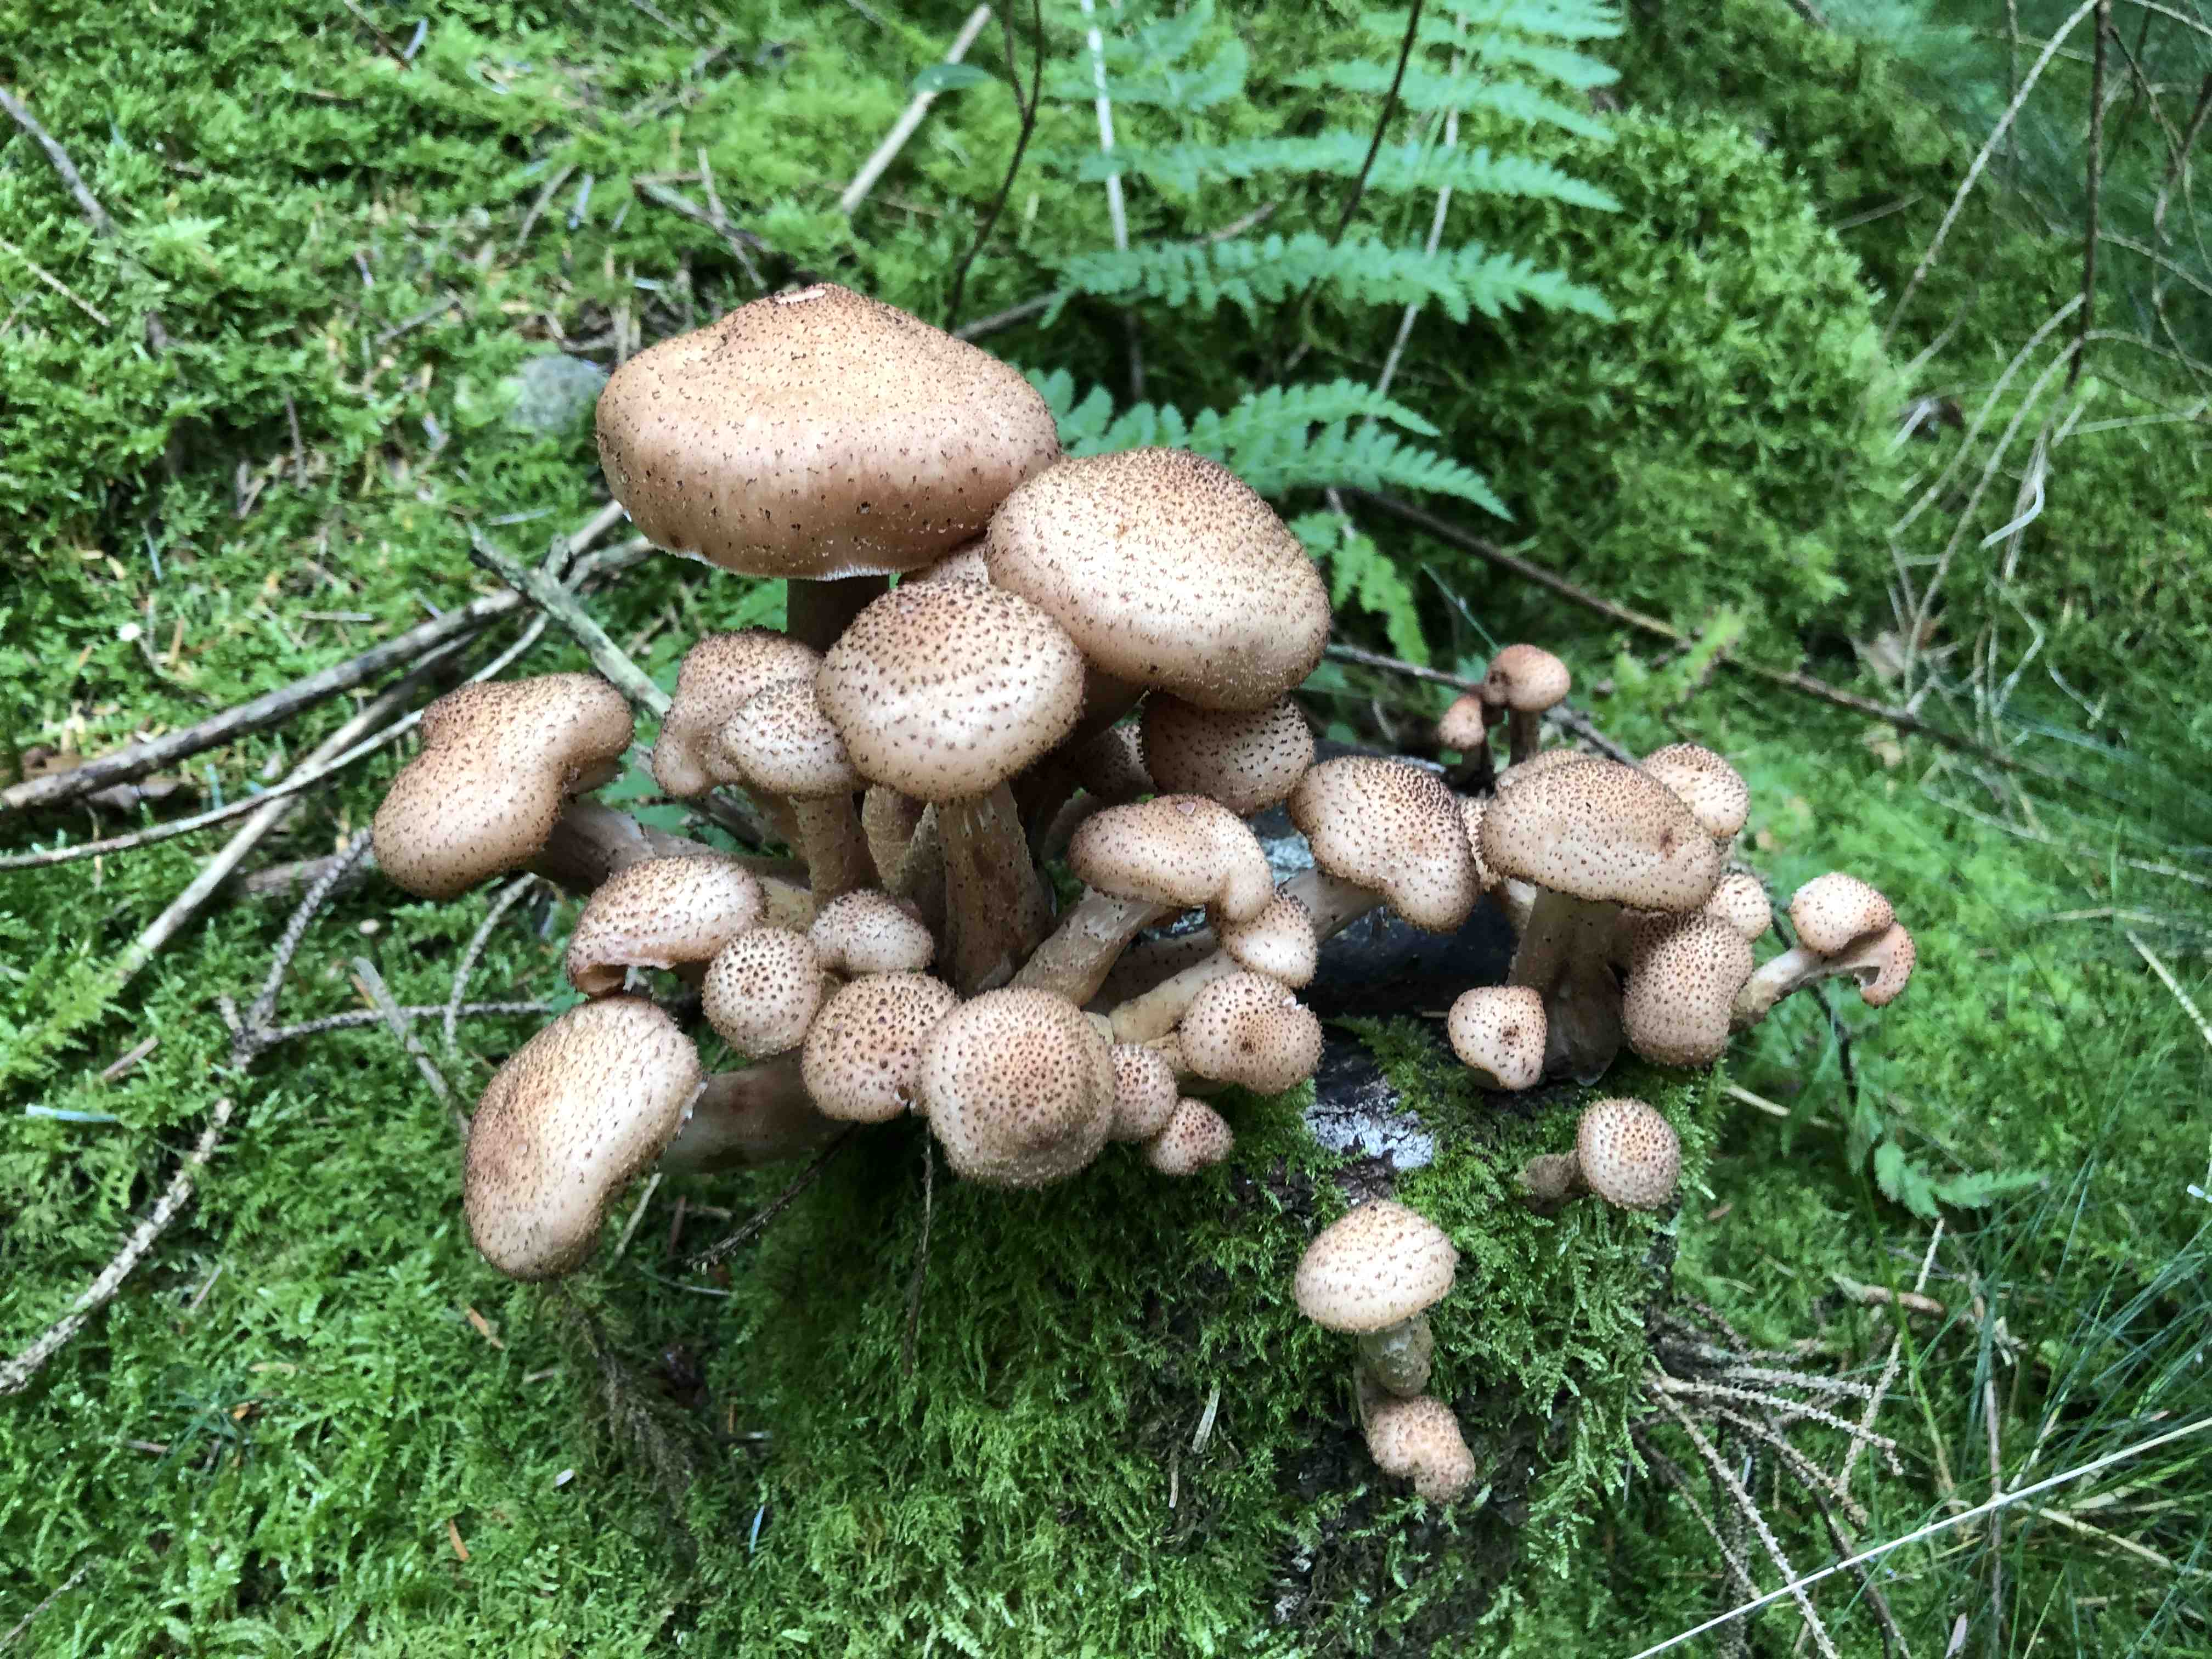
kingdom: Fungi
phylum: Basidiomycota
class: Agaricomycetes
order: Agaricales
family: Physalacriaceae
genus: Armillaria
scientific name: Armillaria ostoyae
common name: mørk honningsvamp
